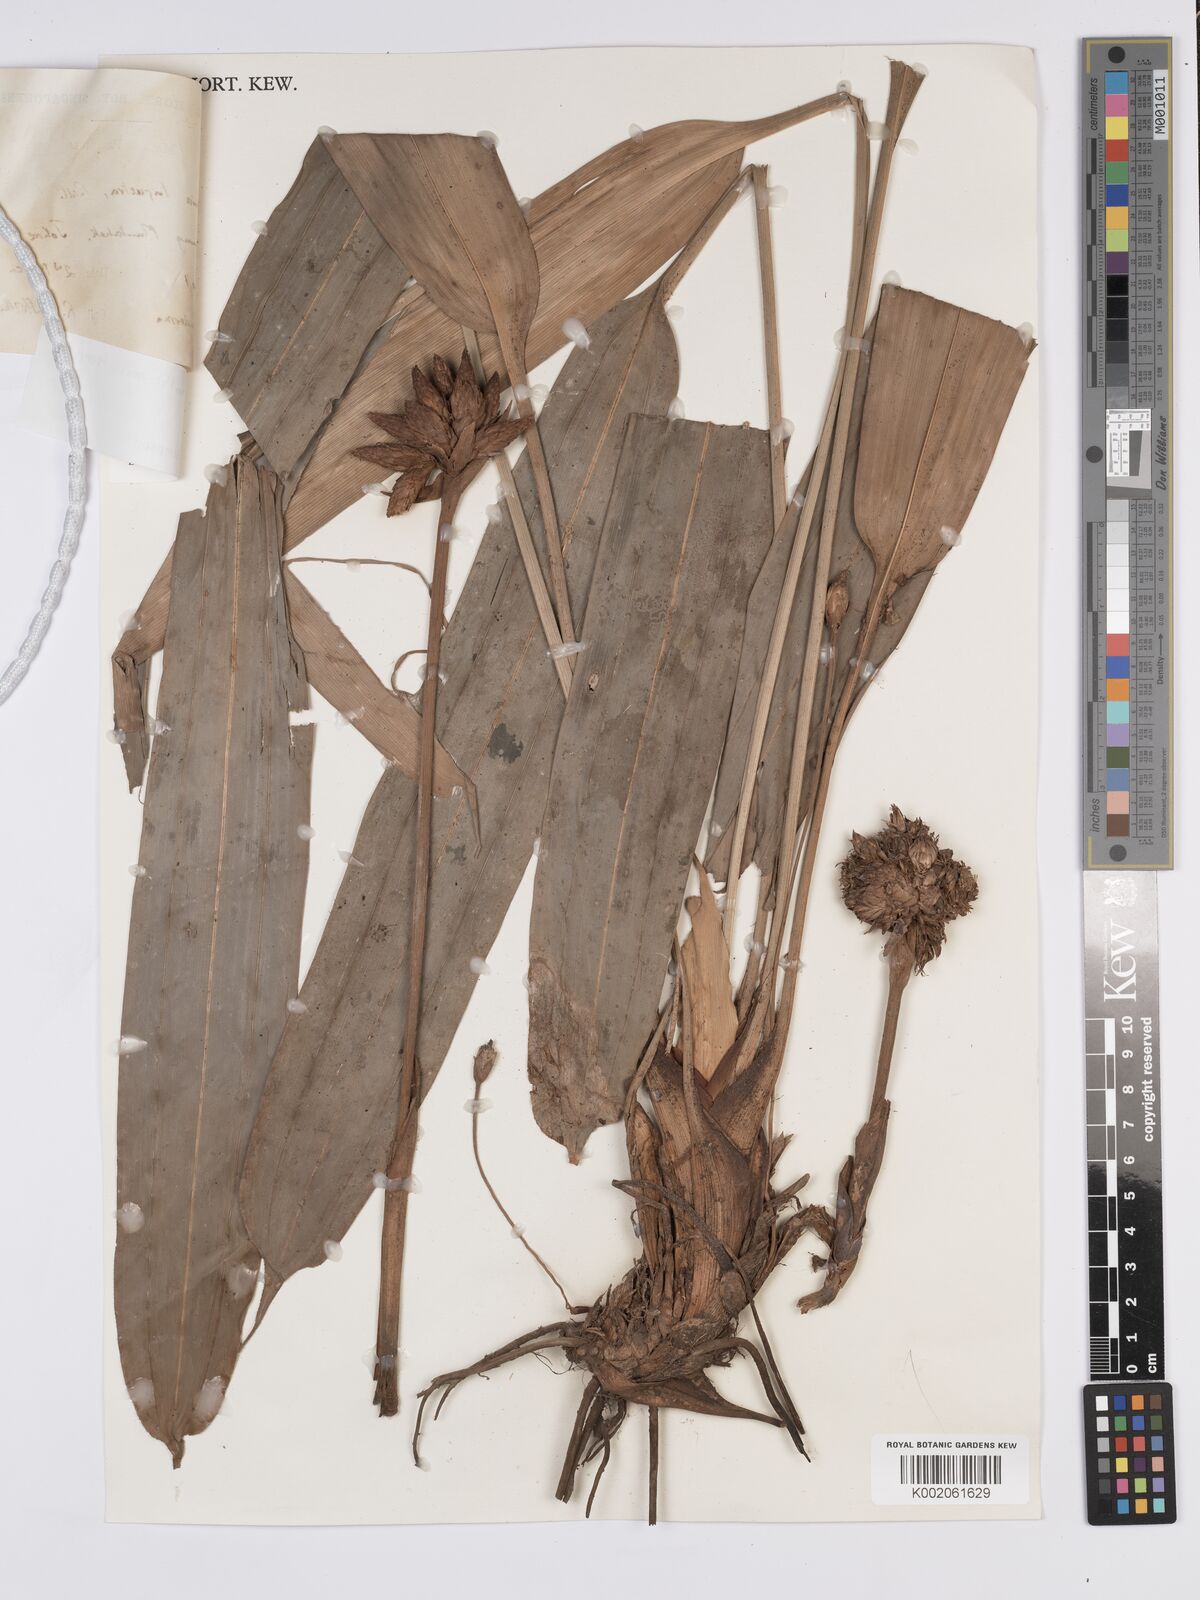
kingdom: Plantae
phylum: Tracheophyta
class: Liliopsida
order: Poales
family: Cyperaceae
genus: Mapania
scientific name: Mapania holttumii
